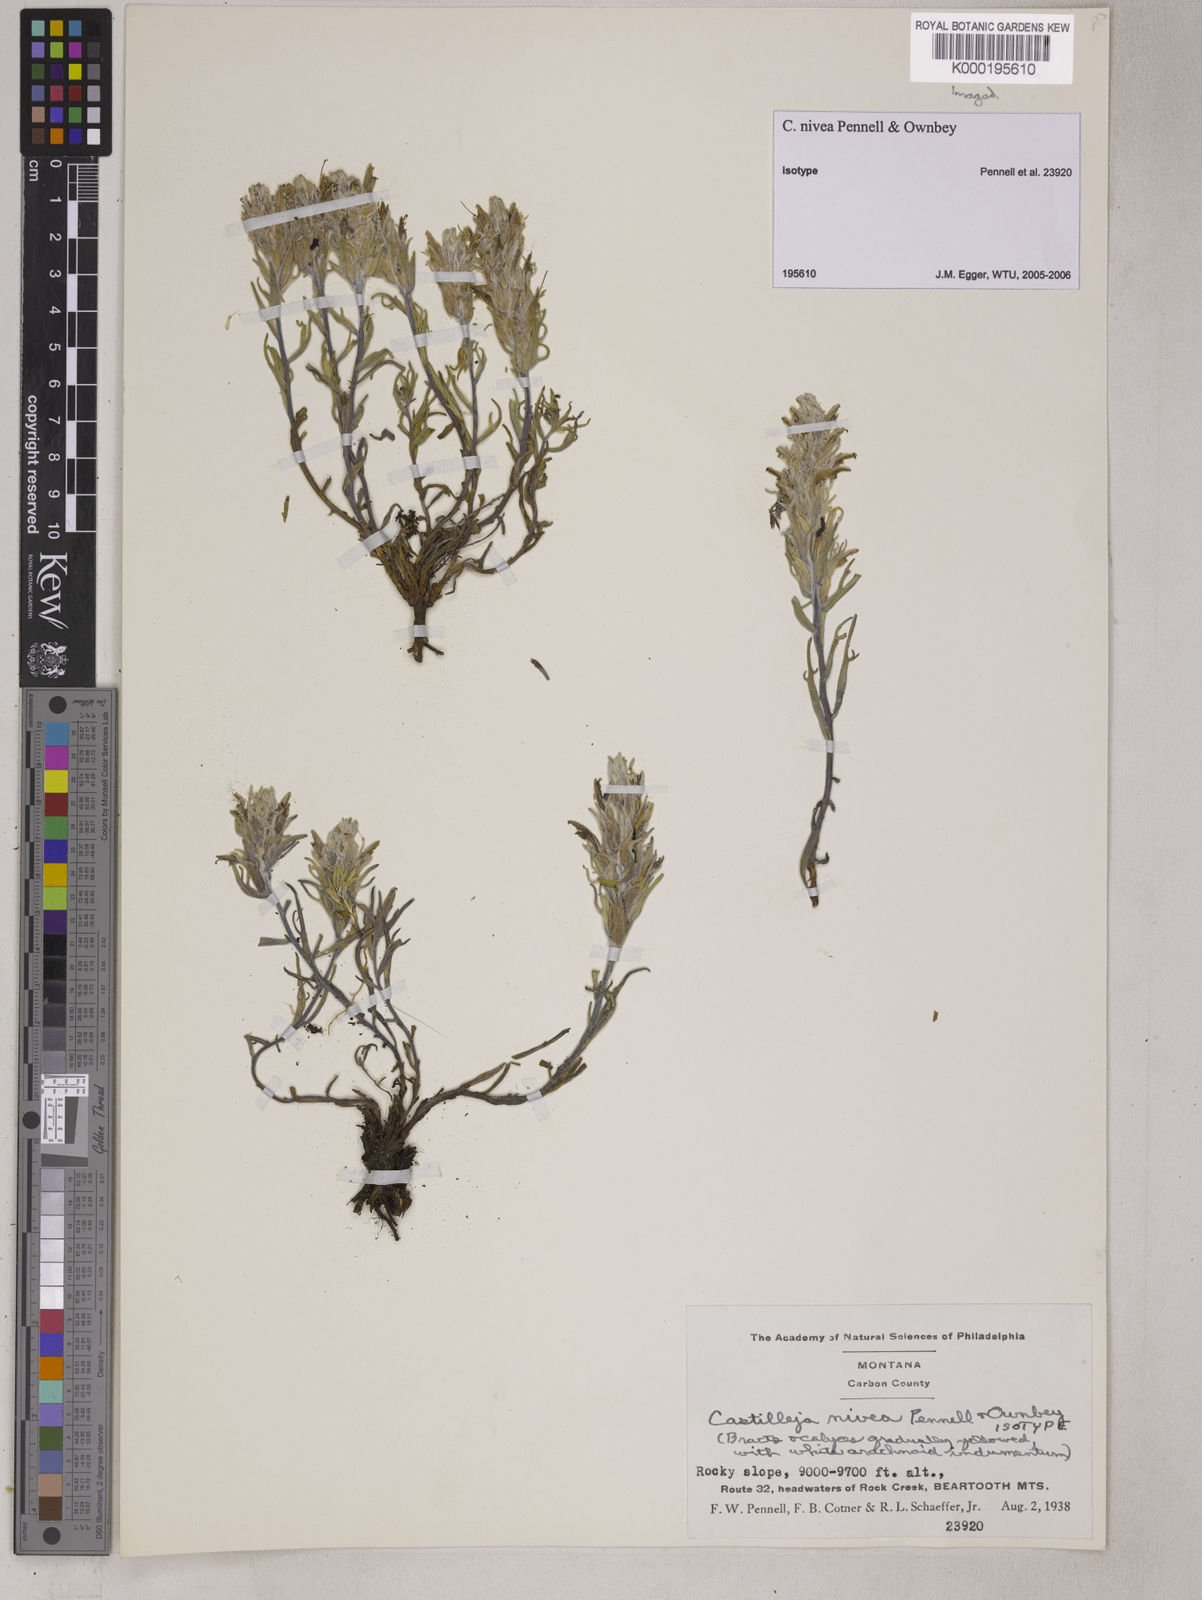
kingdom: Plantae
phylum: Tracheophyta
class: Magnoliopsida
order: Lamiales
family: Orobanchaceae
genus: Castilleja
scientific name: Castilleja nivea
